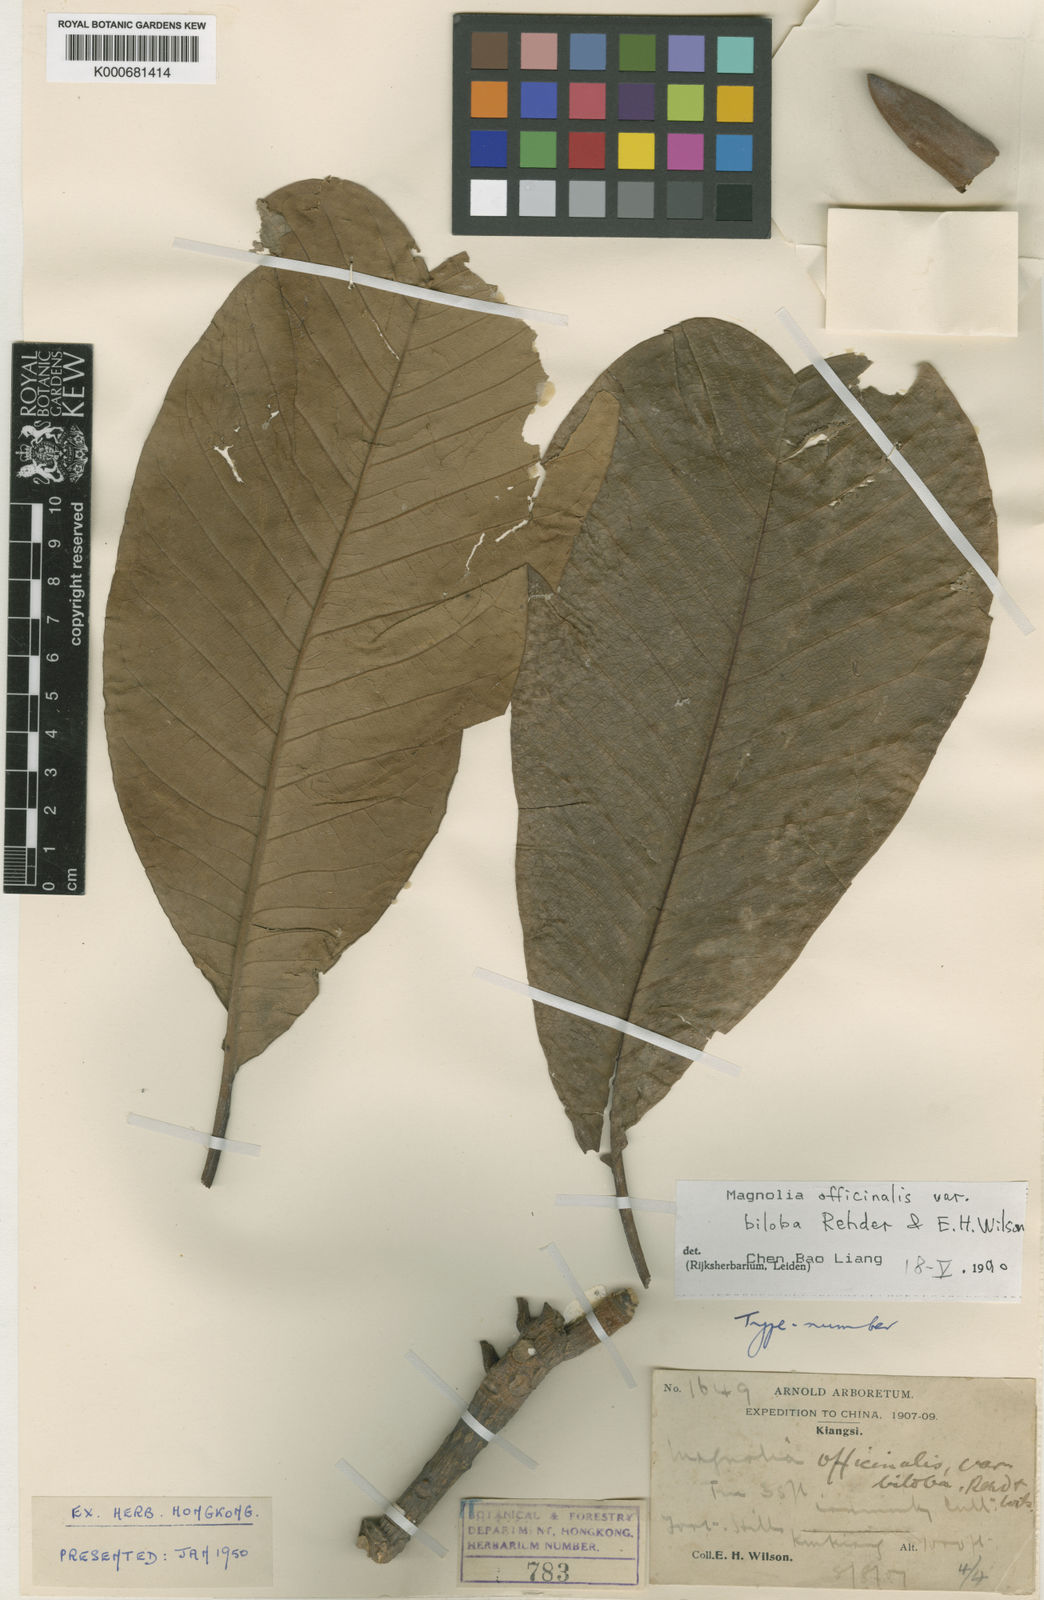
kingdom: Plantae
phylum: Tracheophyta
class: Magnoliopsida
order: Magnoliales
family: Magnoliaceae
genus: Magnolia
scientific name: Magnolia officinalis
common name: Magnolia-bark
